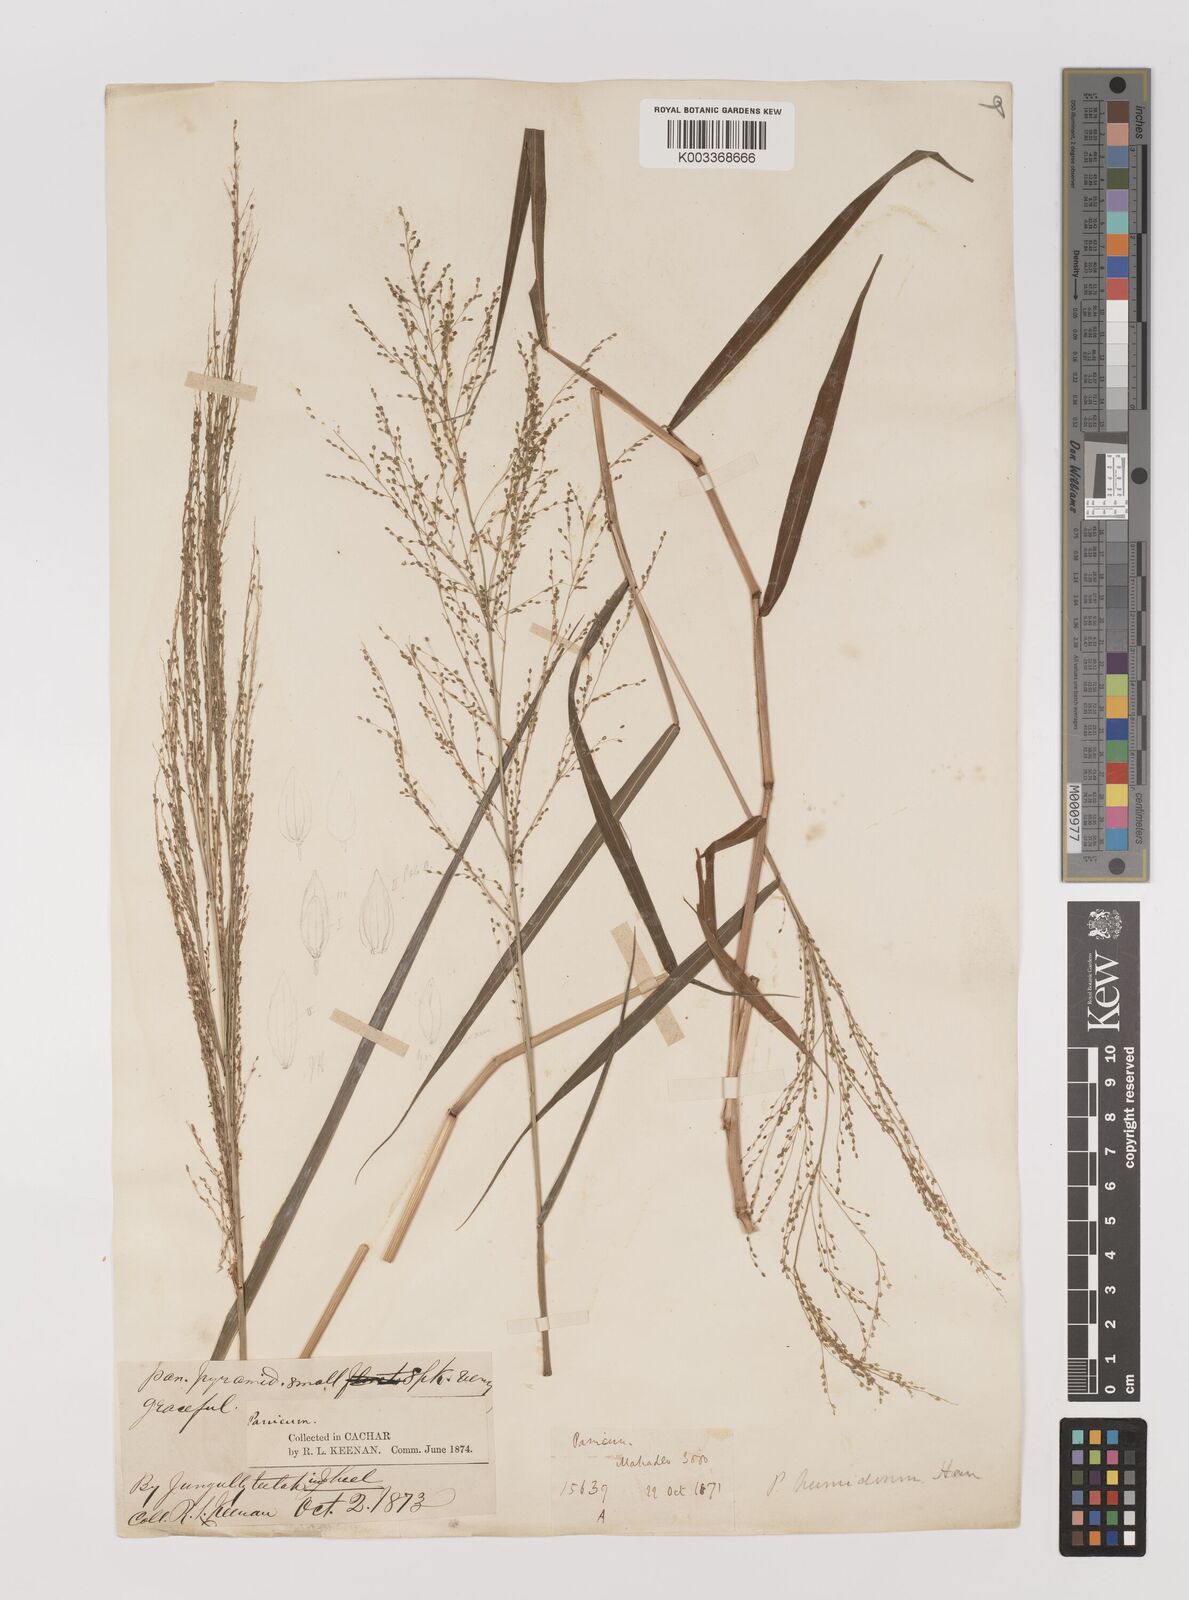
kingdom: Plantae
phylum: Tracheophyta
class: Liliopsida
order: Poales
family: Poaceae
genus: Panicum
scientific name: Panicum humidorum
